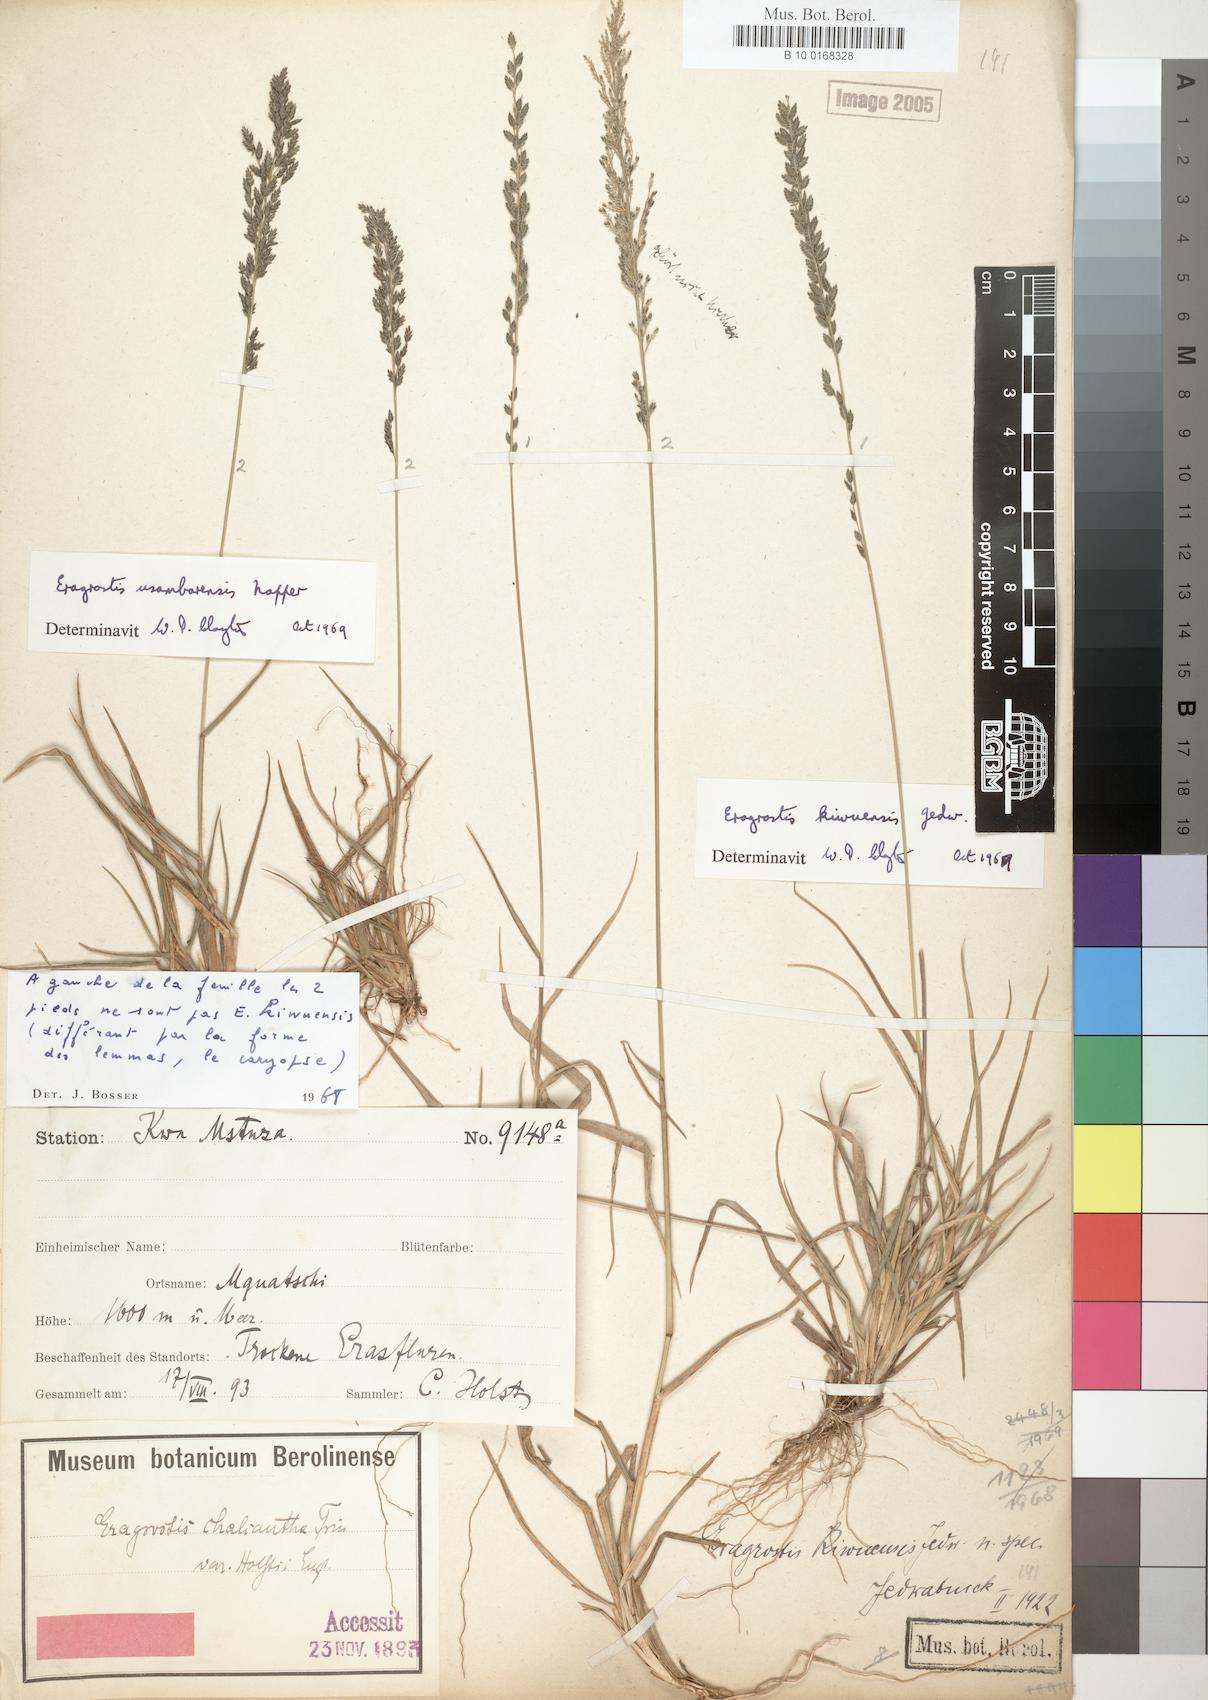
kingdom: Plantae
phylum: Tracheophyta
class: Liliopsida
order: Poales
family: Poaceae
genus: Eragrostis
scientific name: Eragrostis schweinfurthii
